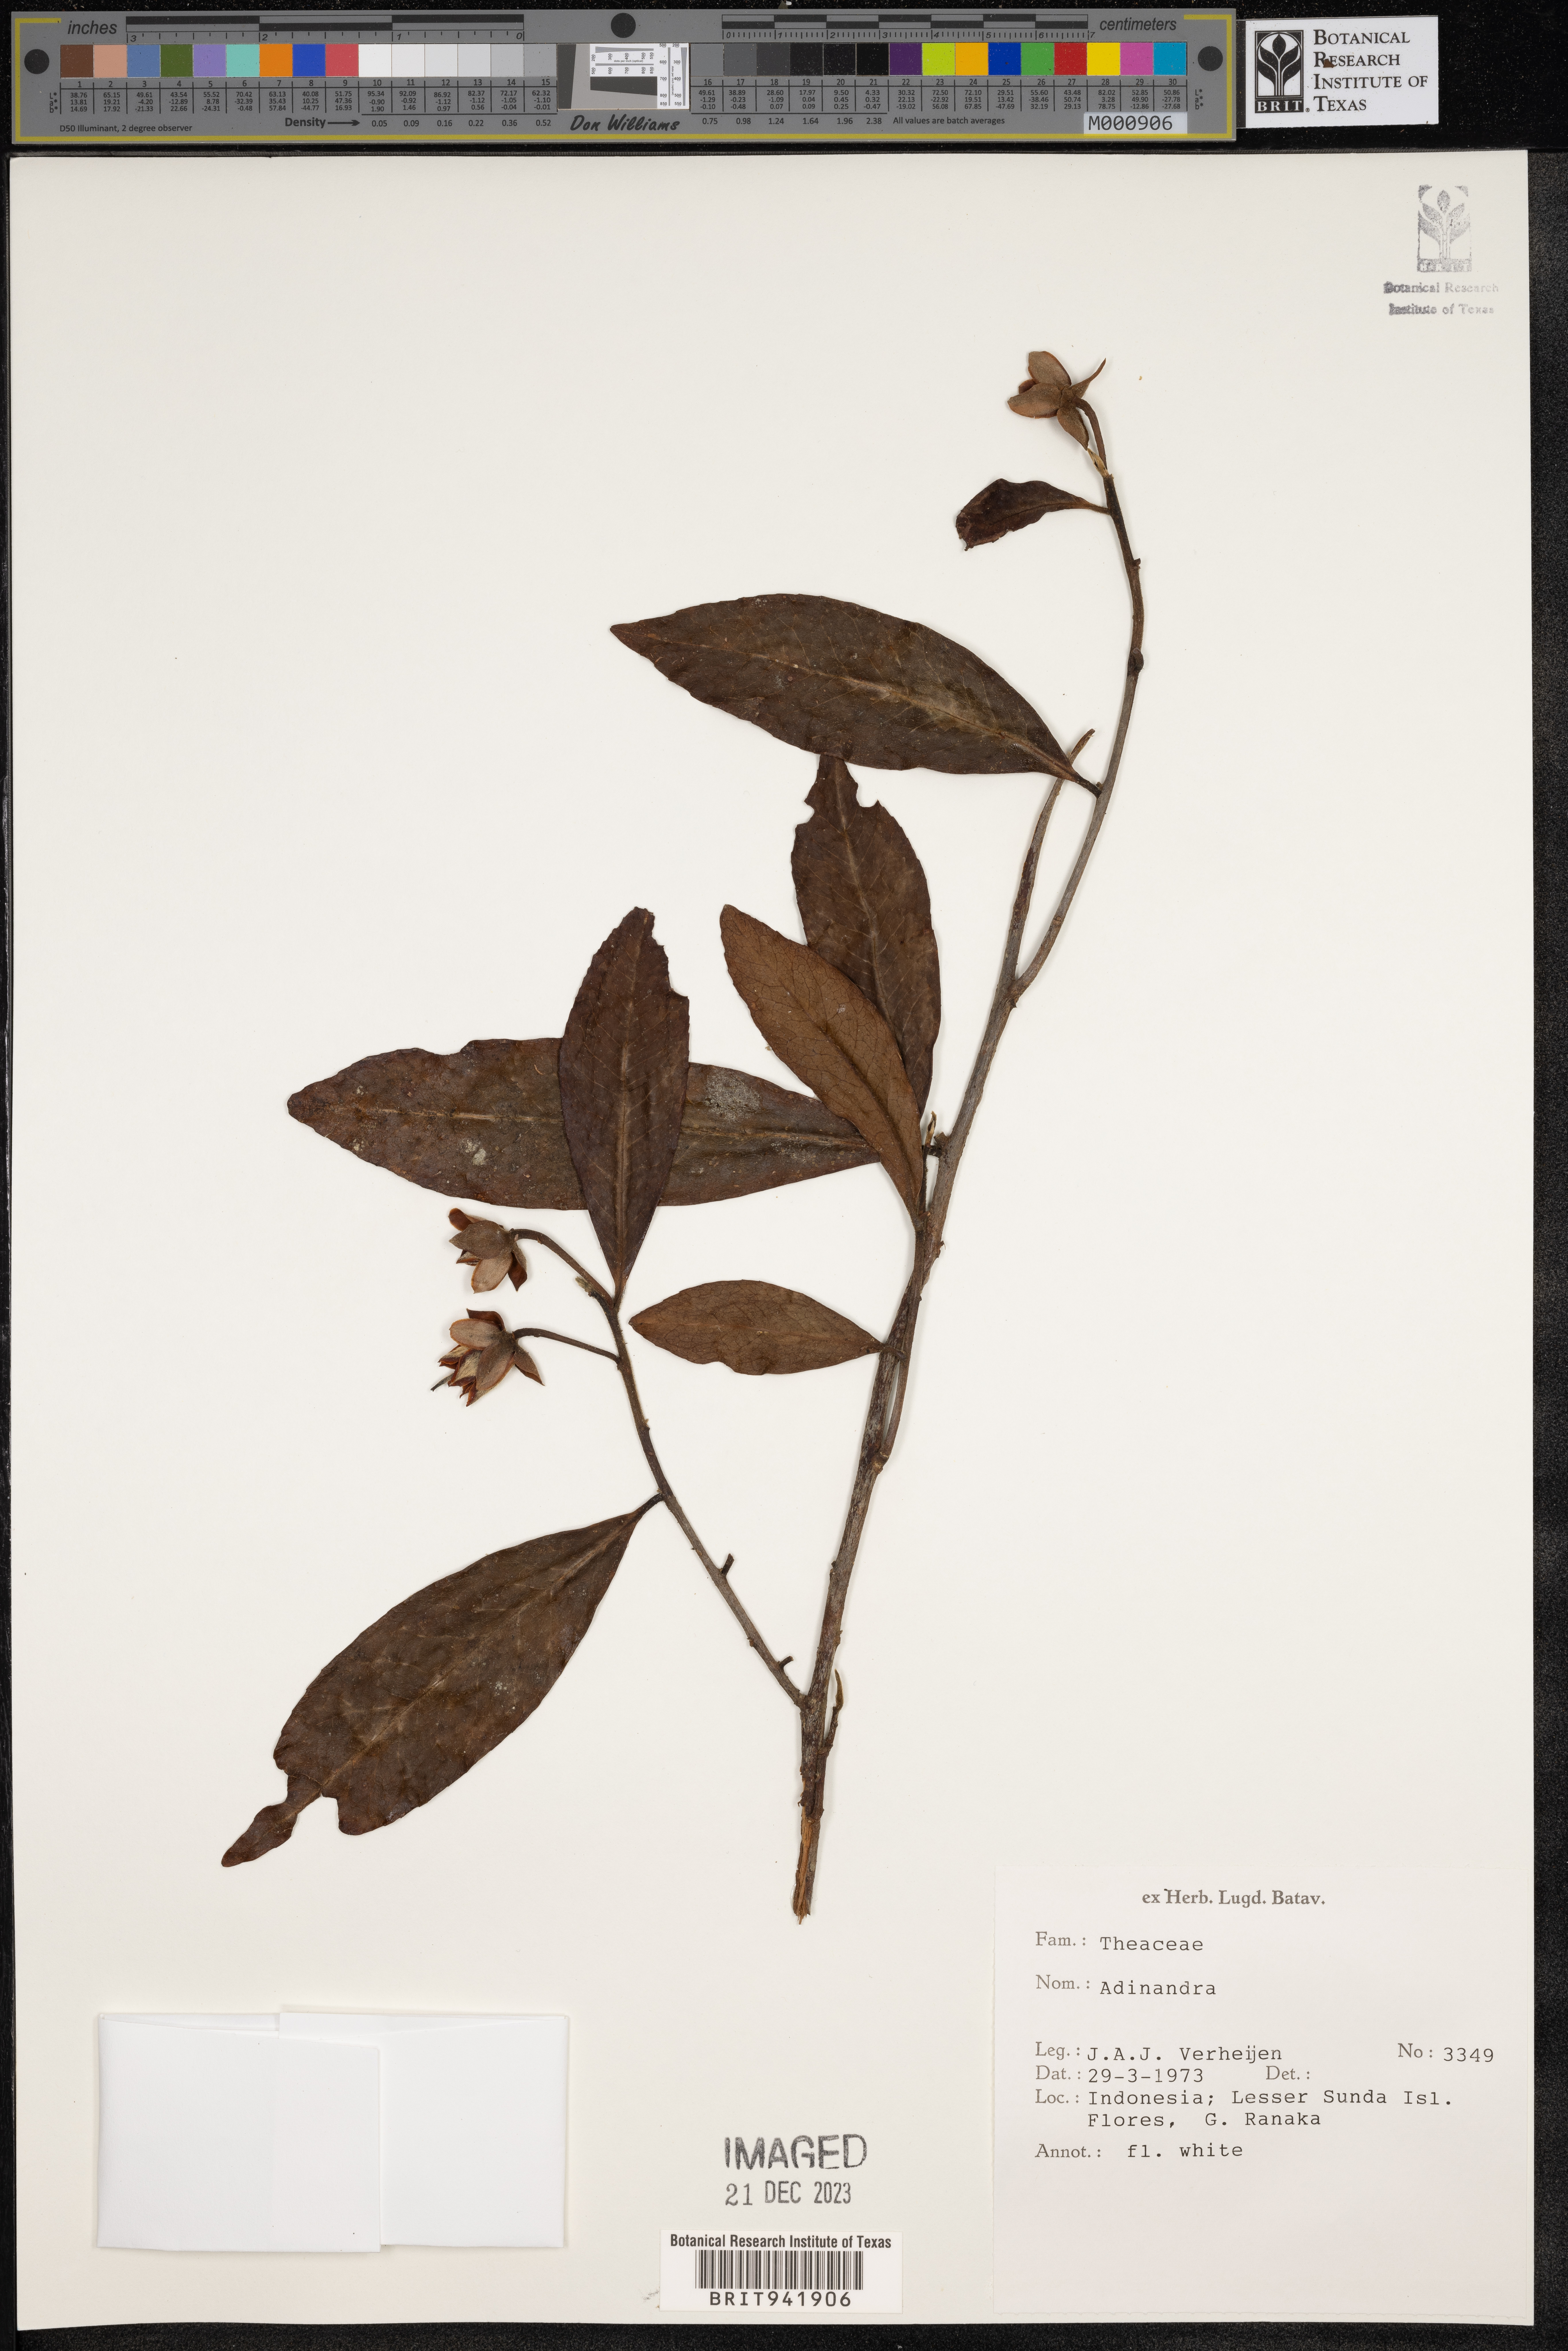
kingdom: Plantae
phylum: Tracheophyta
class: Magnoliopsida
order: Ericales
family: Pentaphylacaceae
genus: Adinandra
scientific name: Adinandra
